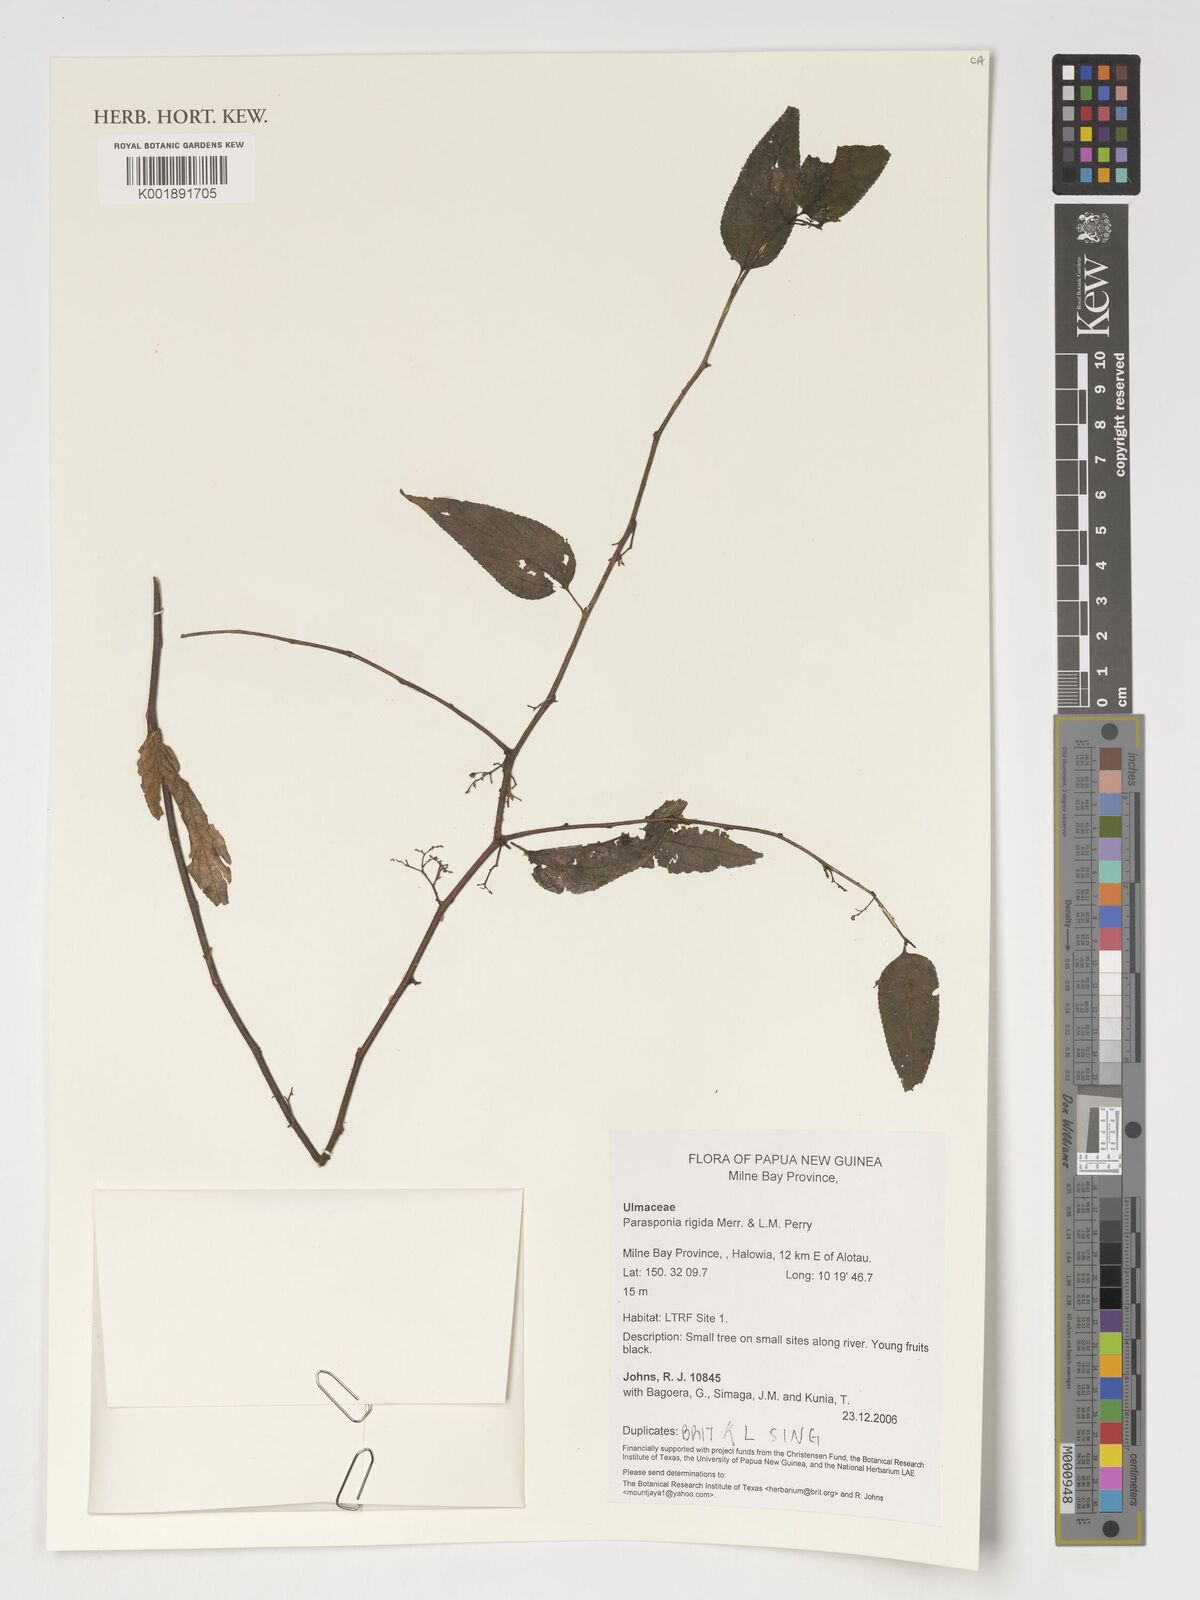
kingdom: Plantae
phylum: Tracheophyta
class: Magnoliopsida
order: Rosales
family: Cannabaceae
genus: Trema
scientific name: Trema rigidum
